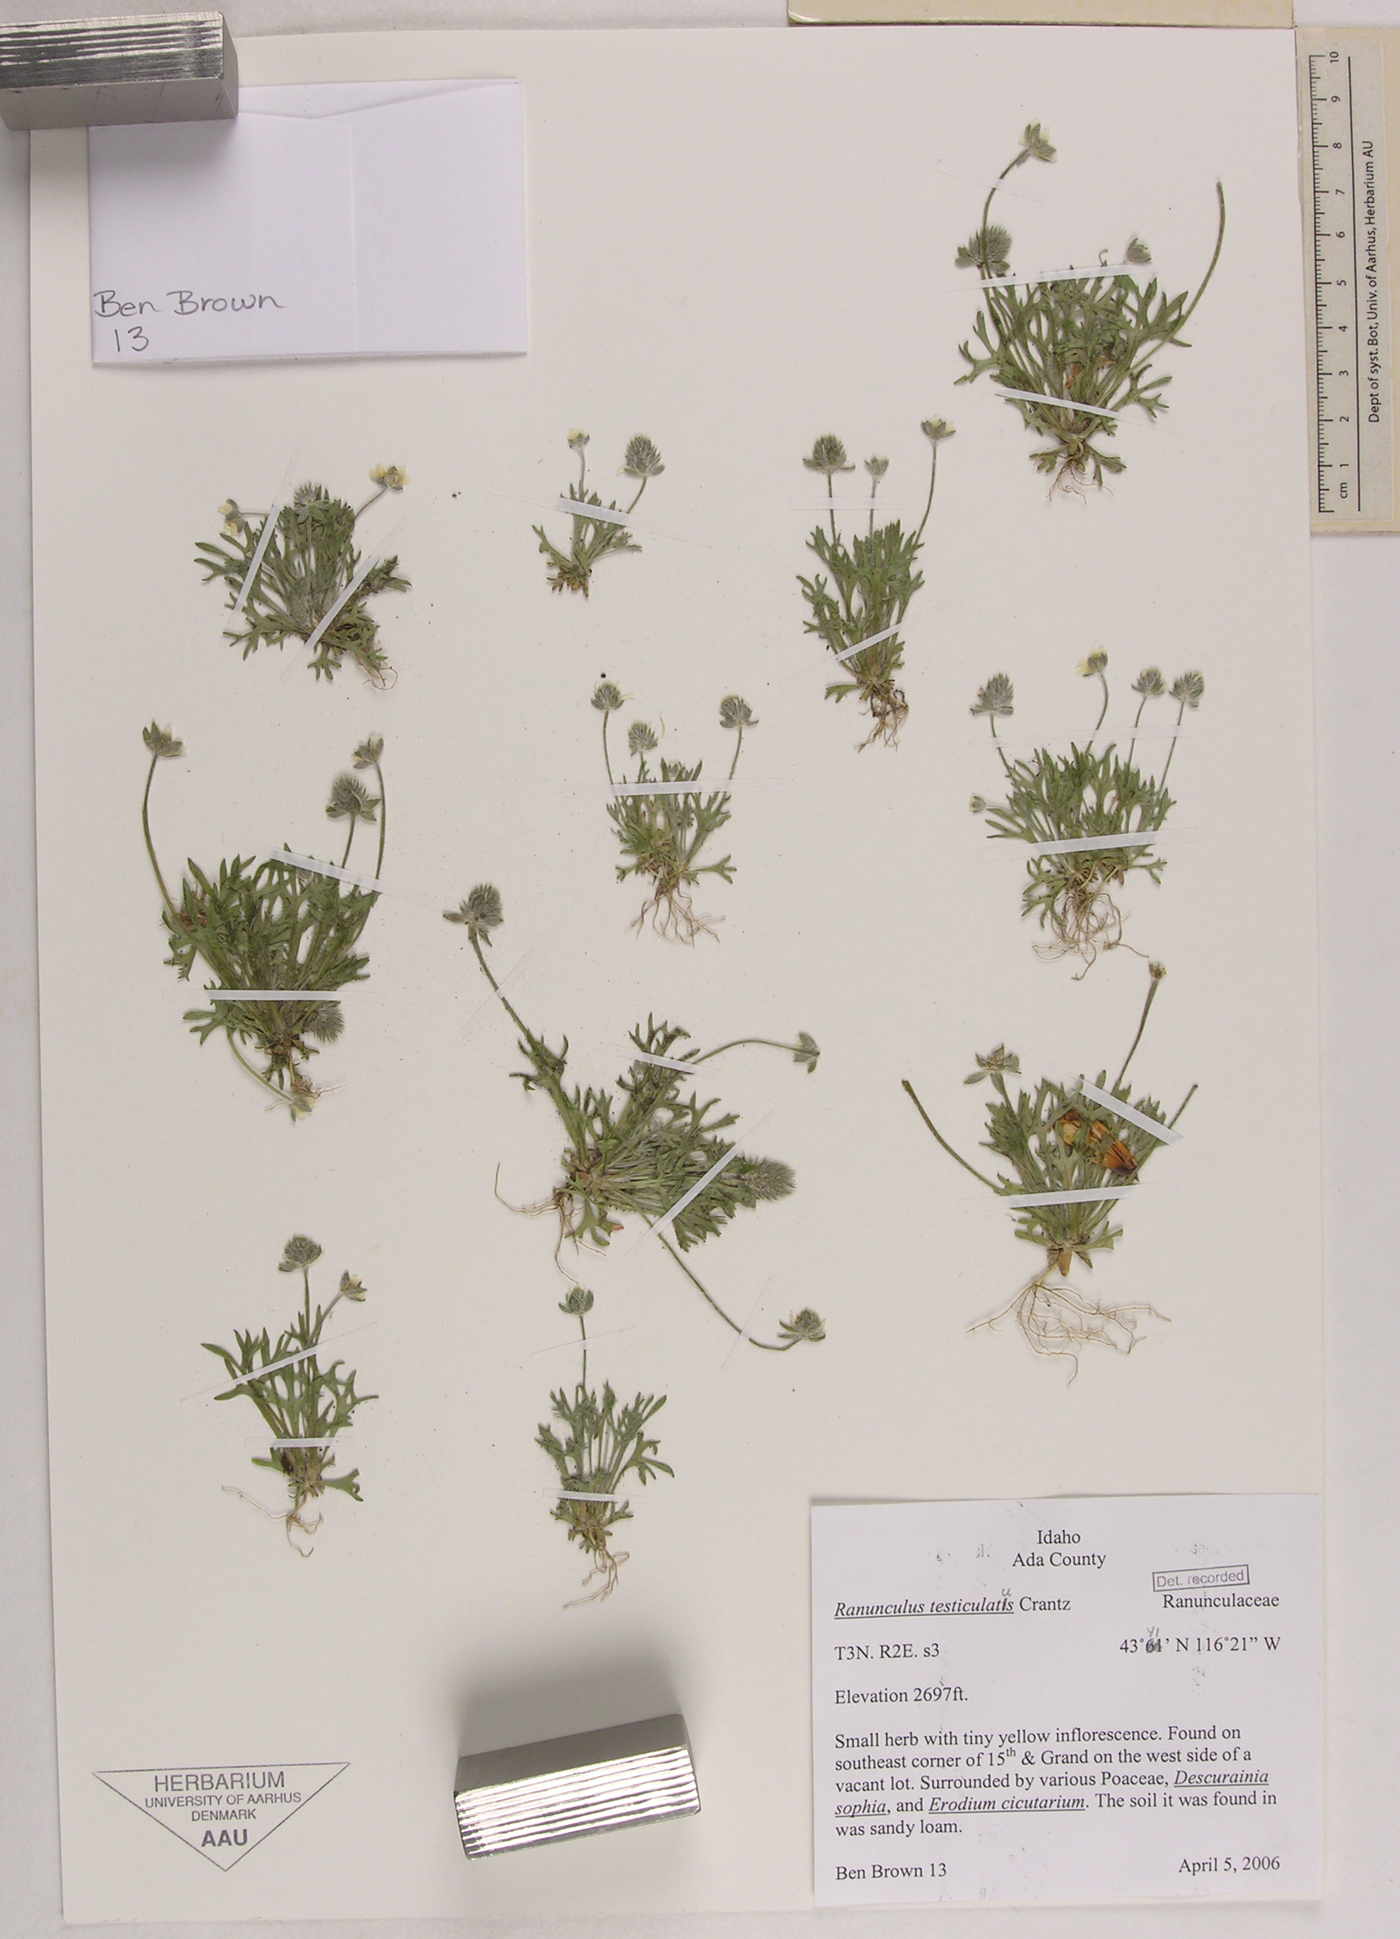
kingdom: Plantae
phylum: Tracheophyta
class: Magnoliopsida
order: Ranunculales
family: Ranunculaceae
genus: Ceratocephala
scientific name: Ceratocephala orthoceras
